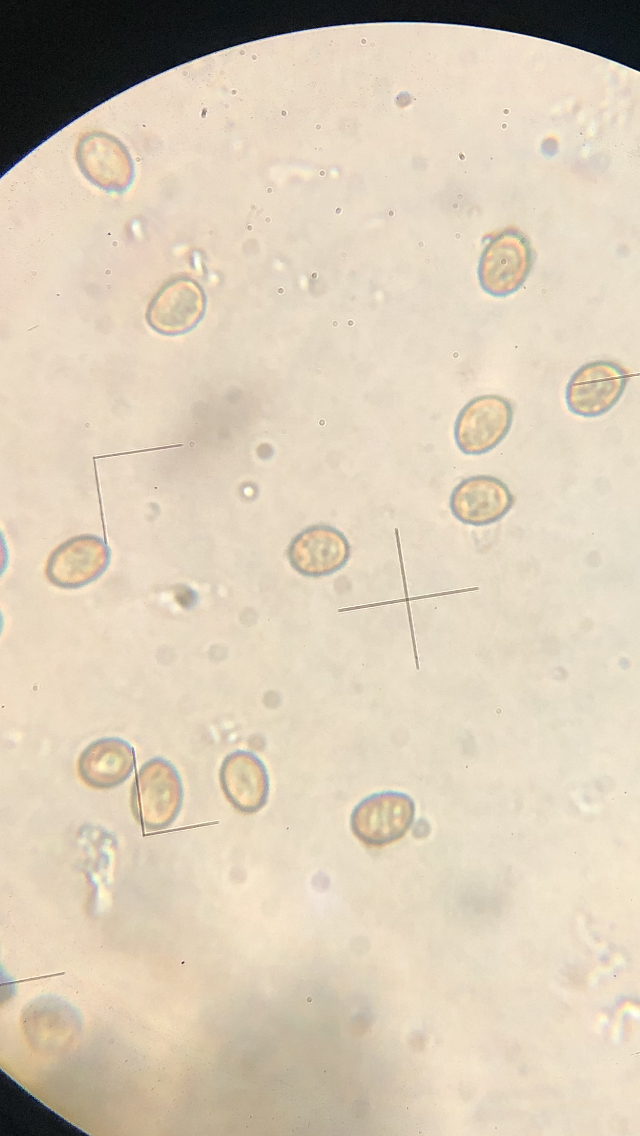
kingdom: Fungi
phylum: Basidiomycota
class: Agaricomycetes
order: Agaricales
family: Cortinariaceae
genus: Cortinarius
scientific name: Cortinarius subtortus
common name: olivengul slørhat
